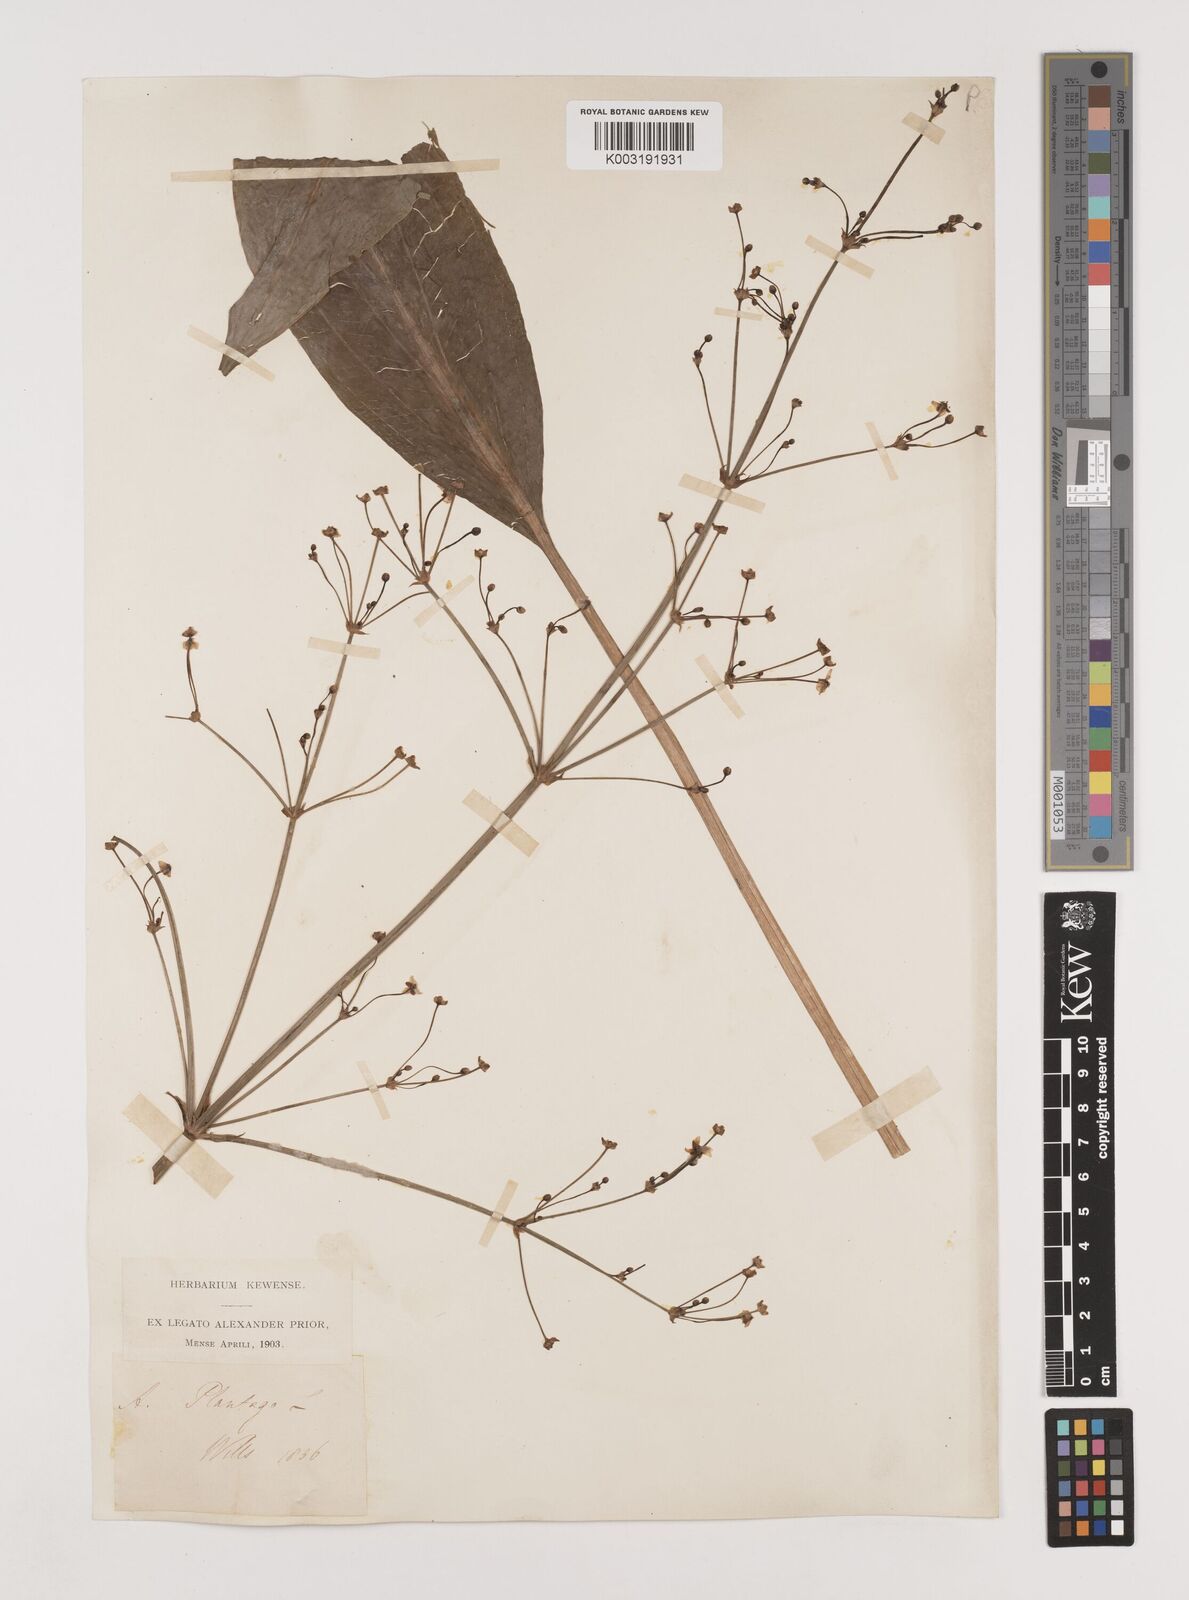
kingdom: Plantae
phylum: Tracheophyta
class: Liliopsida
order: Alismatales
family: Alismataceae
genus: Alisma
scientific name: Alisma lanceolatum
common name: Narrow-leaved water-plantain
